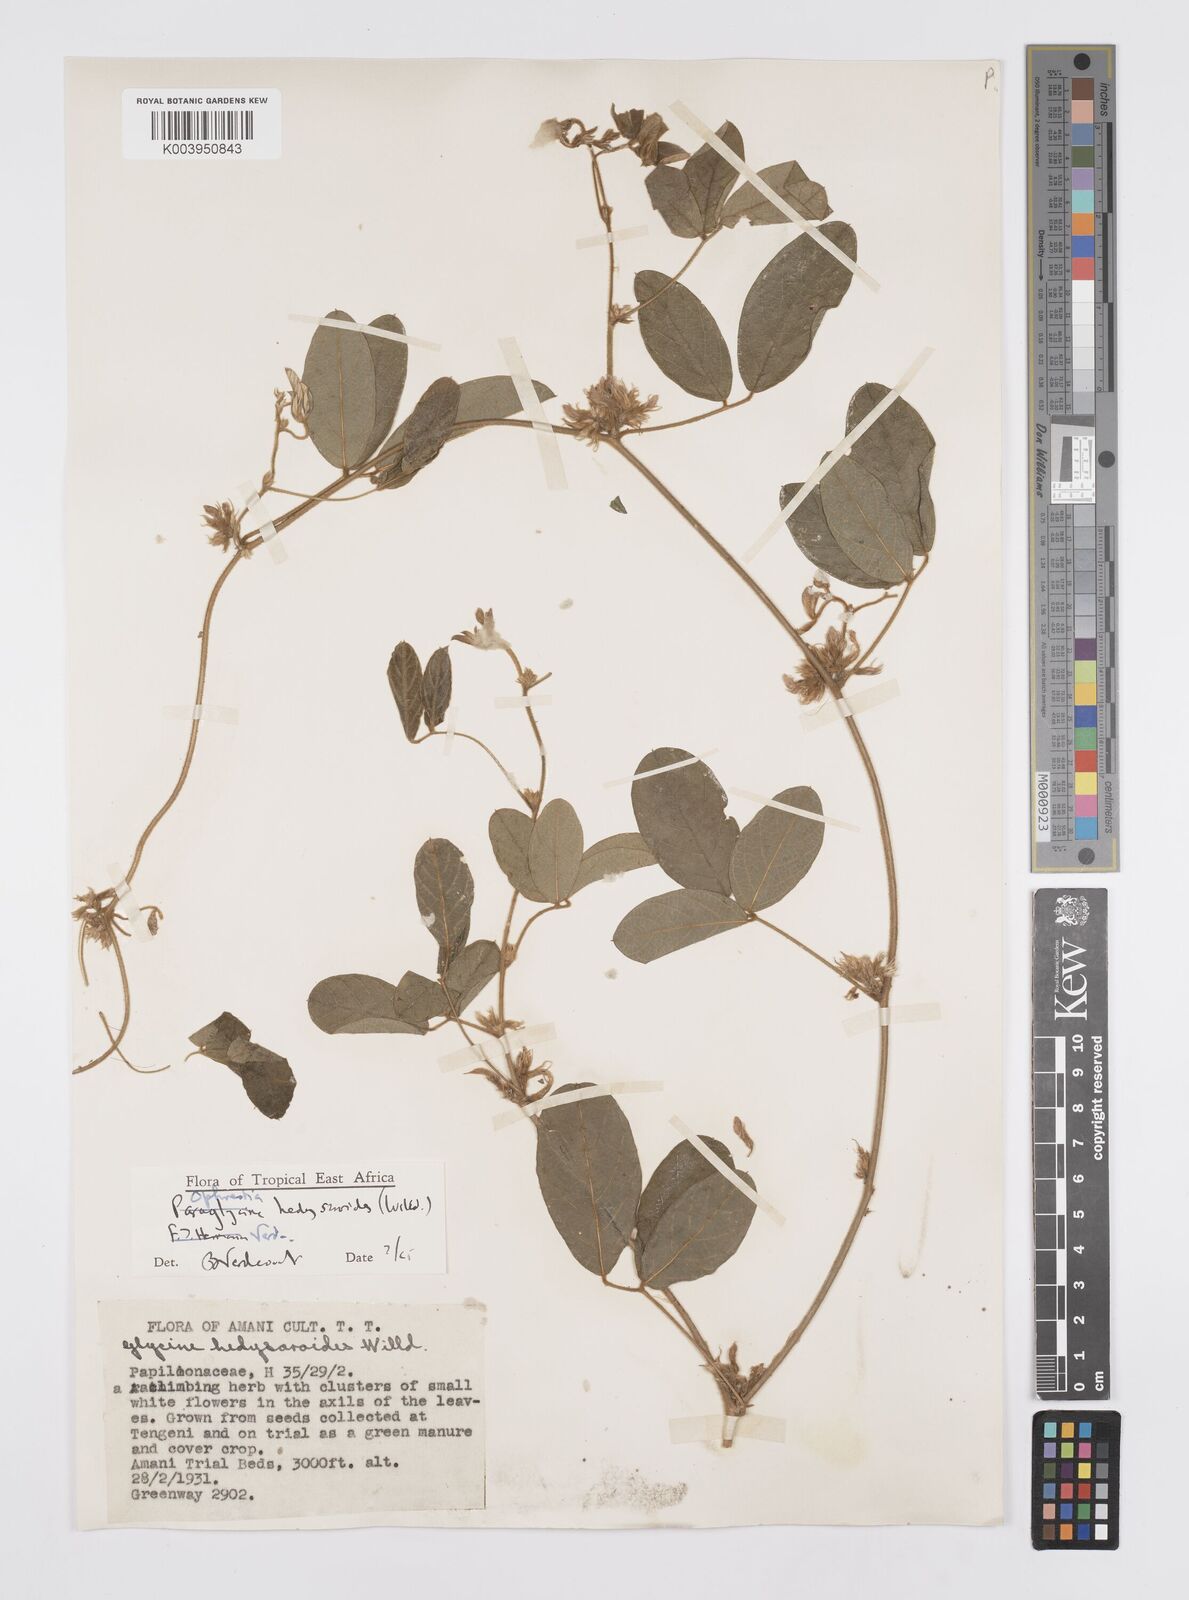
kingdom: Plantae
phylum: Tracheophyta
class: Magnoliopsida
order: Fabales
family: Fabaceae
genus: Ophrestia
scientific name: Ophrestia hedysaroides
